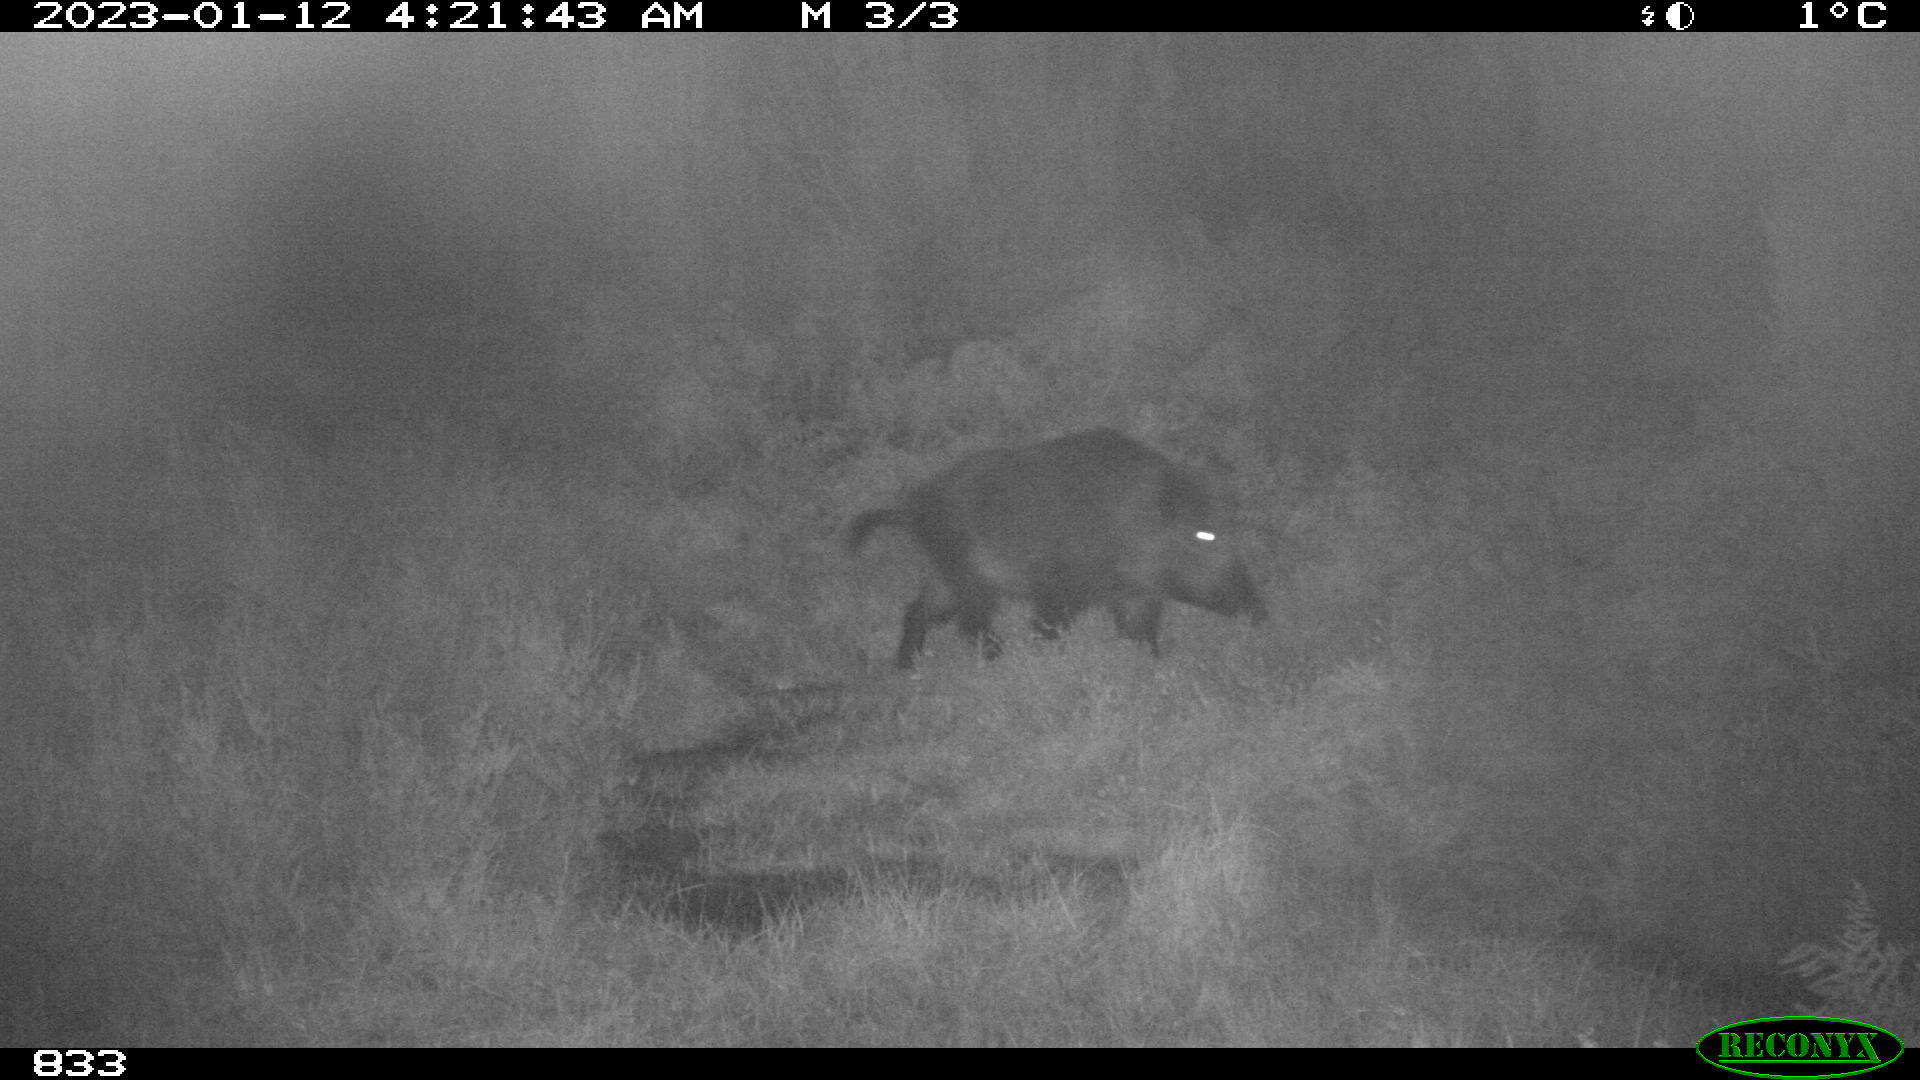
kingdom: Animalia
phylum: Chordata
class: Mammalia
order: Artiodactyla
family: Suidae
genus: Sus
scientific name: Sus scrofa
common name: Wild boar
